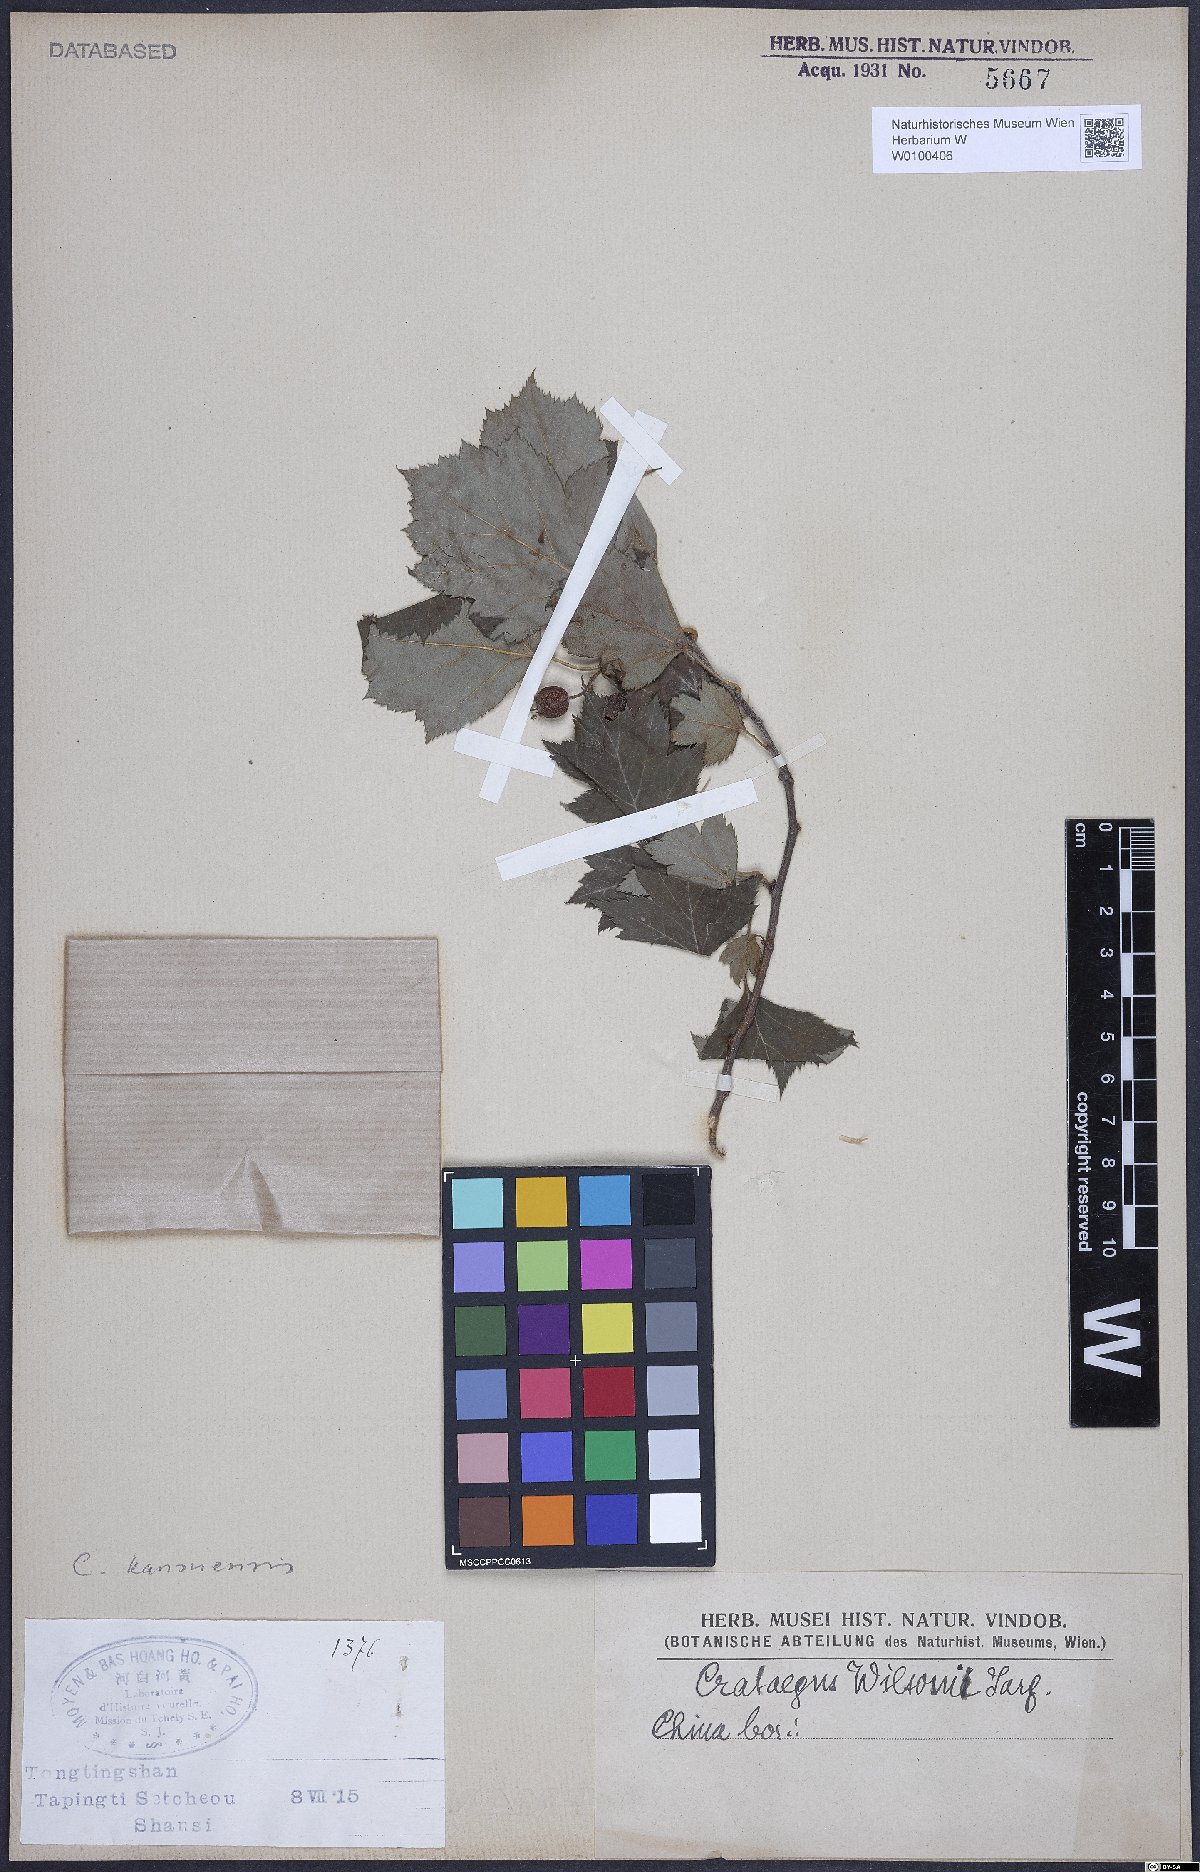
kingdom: Plantae
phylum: Tracheophyta
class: Magnoliopsida
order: Rosales
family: Rosaceae
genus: Crataegus
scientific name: Crataegus kansuensis
